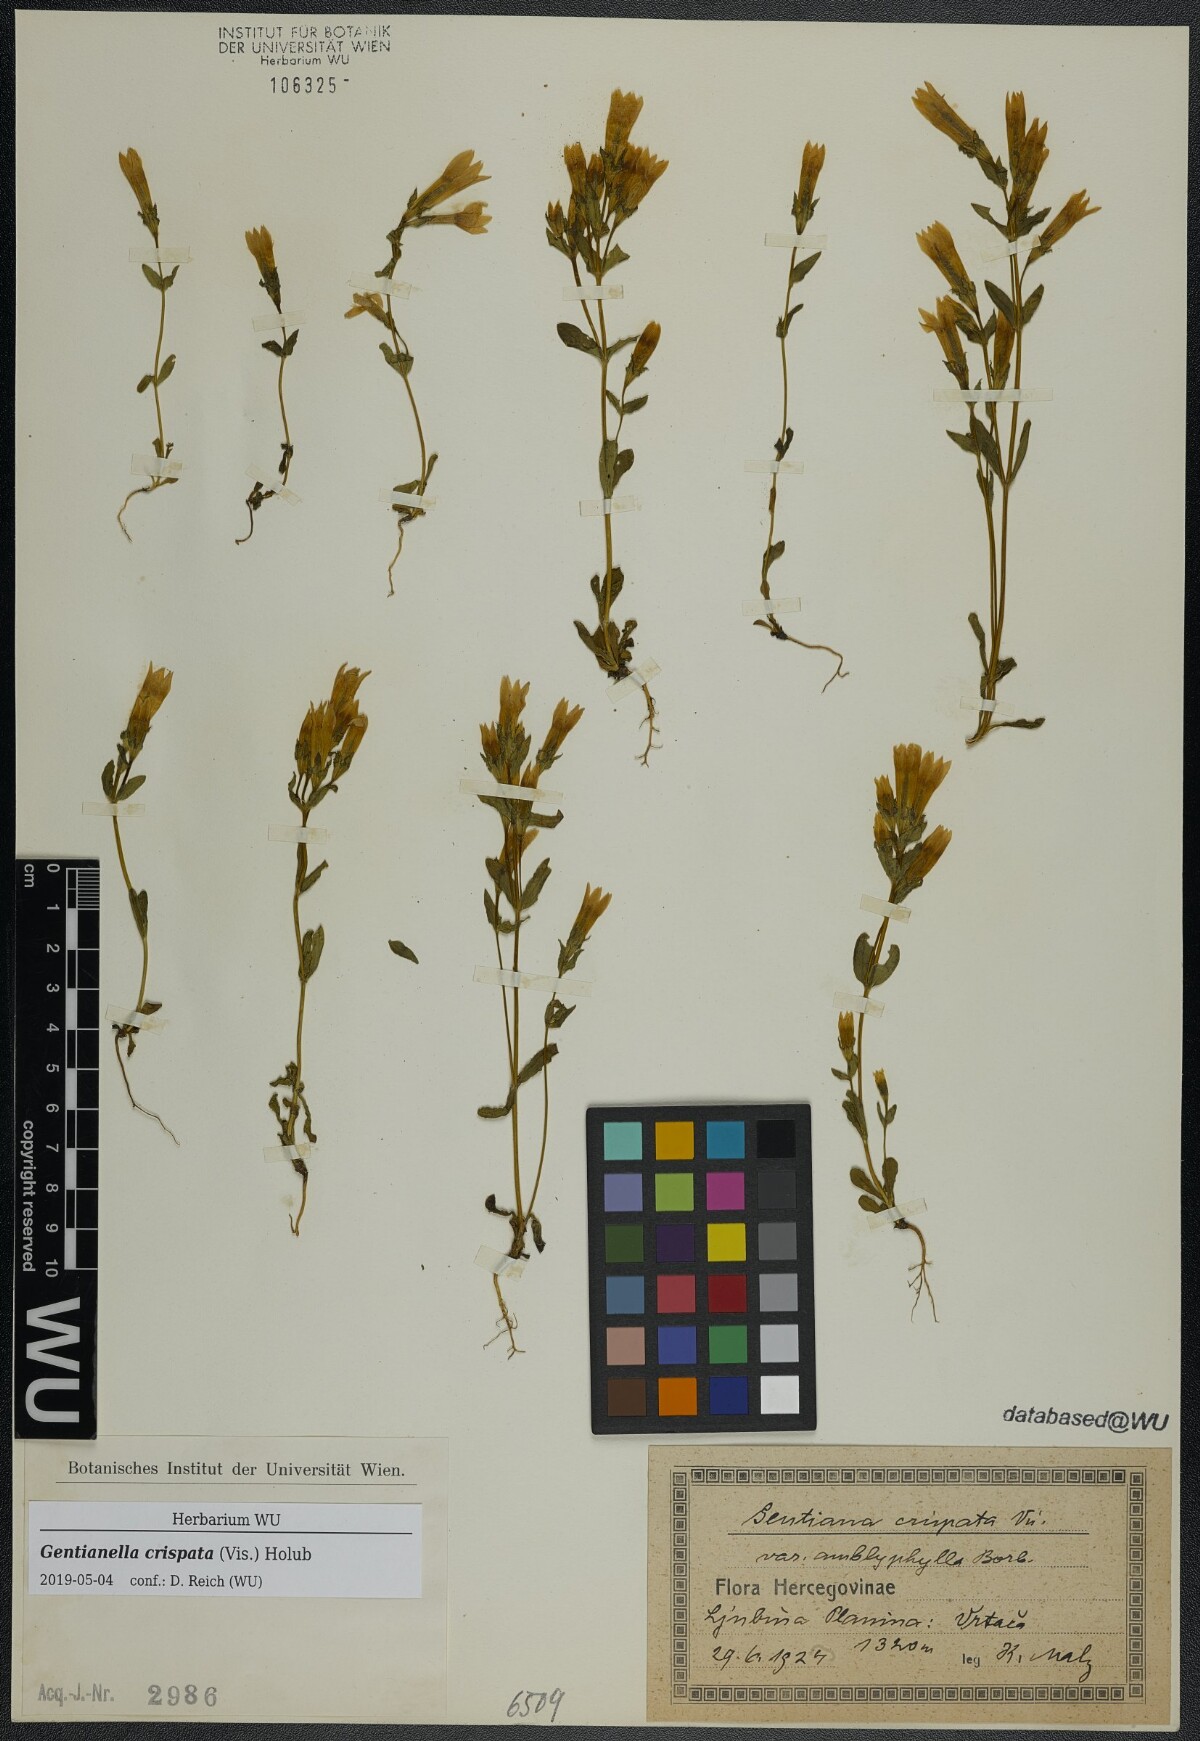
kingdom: Plantae
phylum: Tracheophyta
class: Magnoliopsida
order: Gentianales
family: Gentianaceae
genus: Gentianella
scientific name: Gentianella crispata
